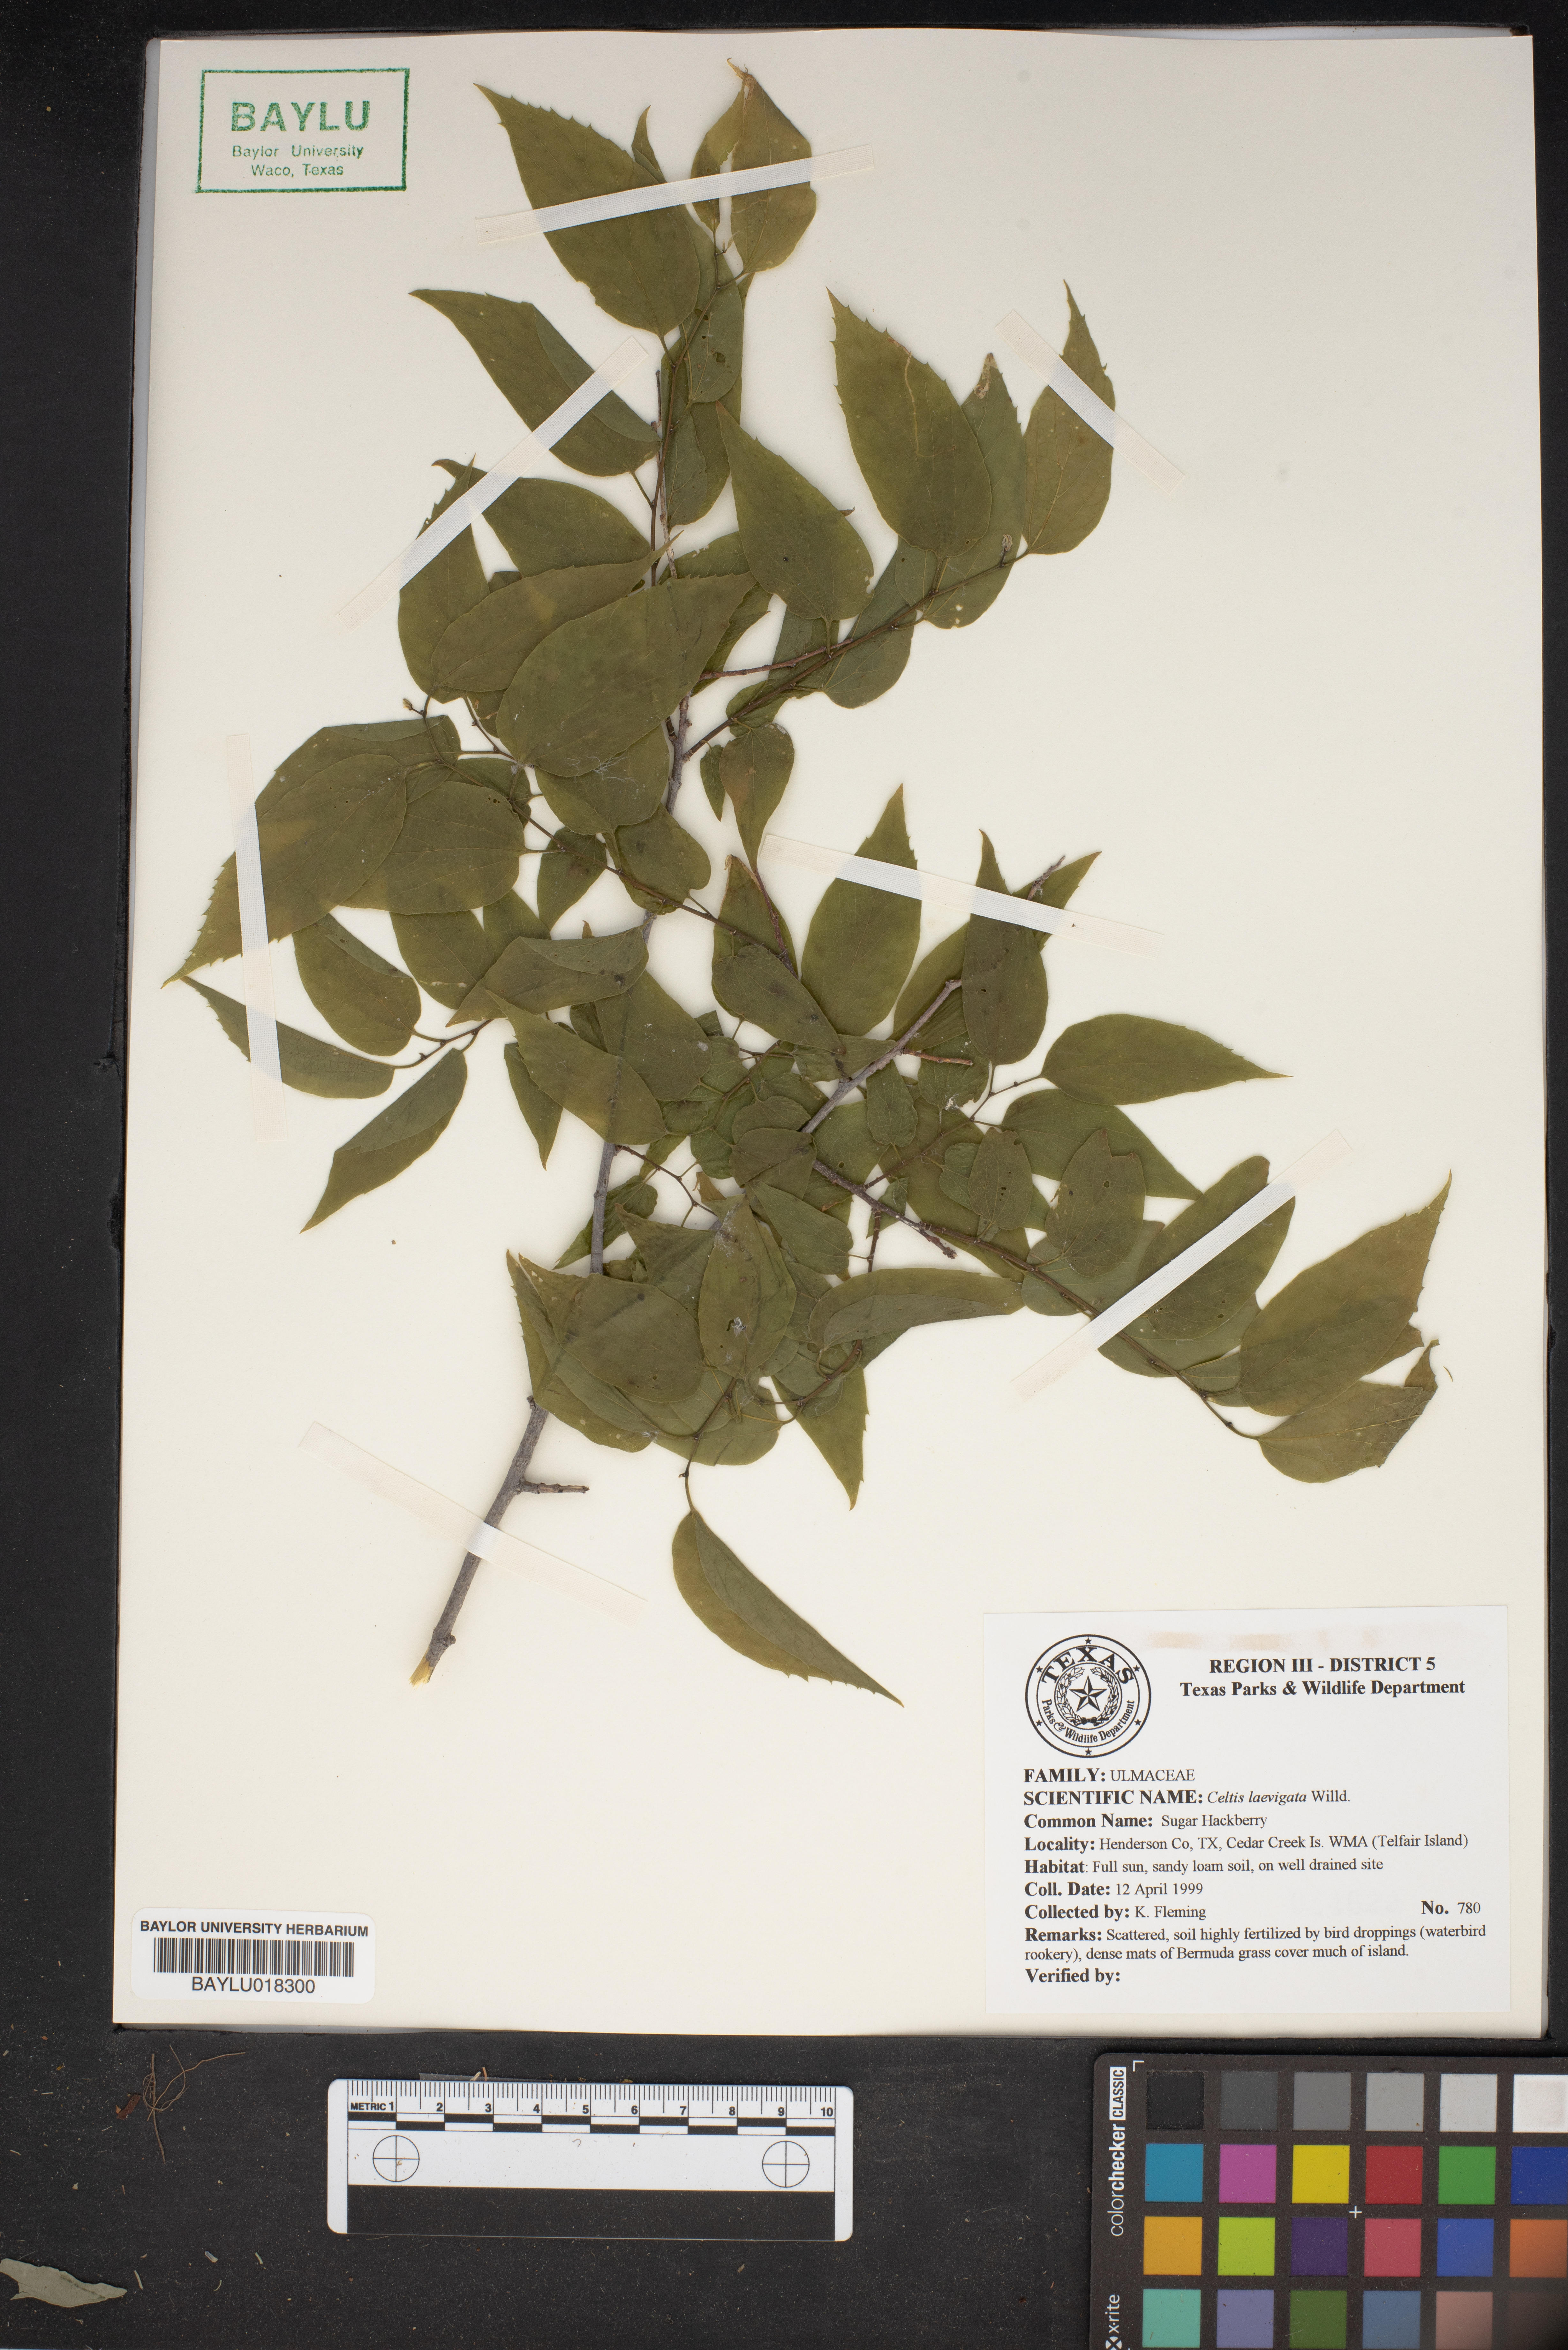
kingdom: Plantae
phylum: Tracheophyta
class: Magnoliopsida
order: Rosales
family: Cannabaceae
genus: Celtis
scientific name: Celtis laevigata
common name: Sugarberry
